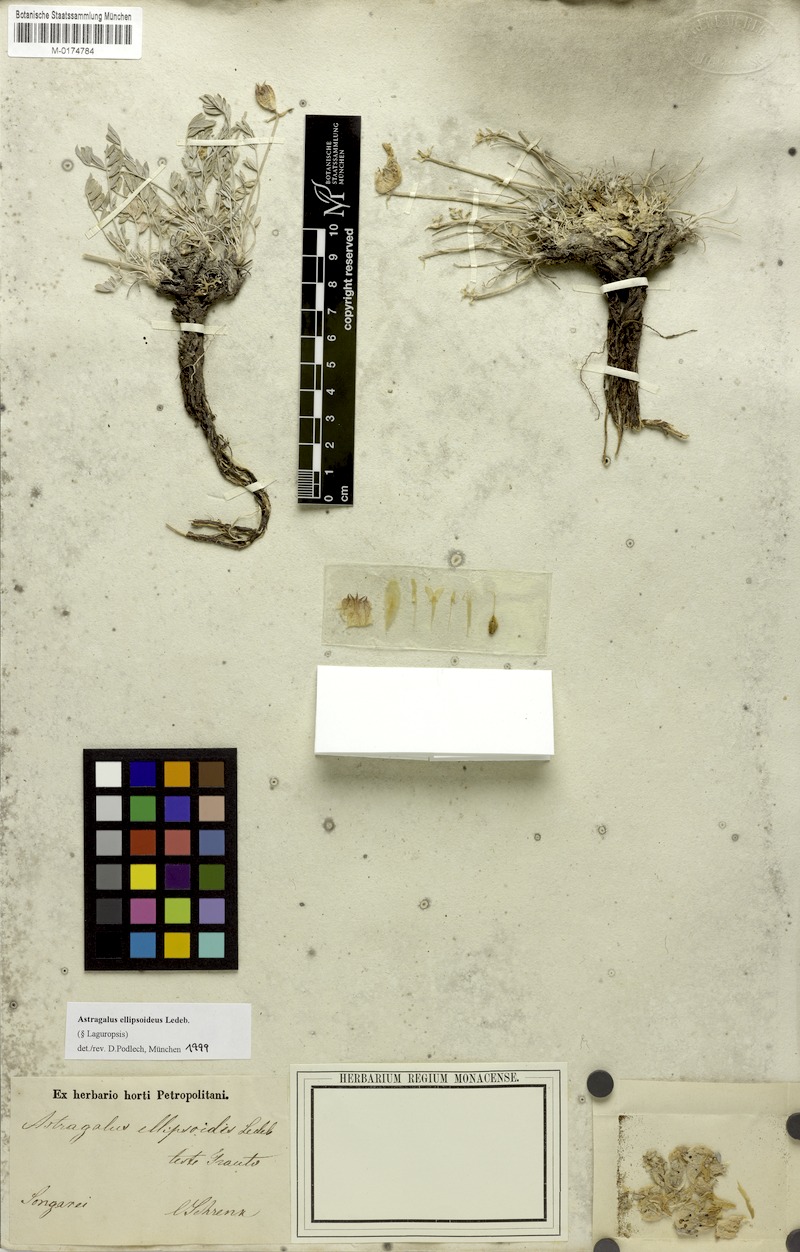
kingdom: Plantae
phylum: Tracheophyta
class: Magnoliopsida
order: Fabales
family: Fabaceae
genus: Astragalus
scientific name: Astragalus ellipsoideus
